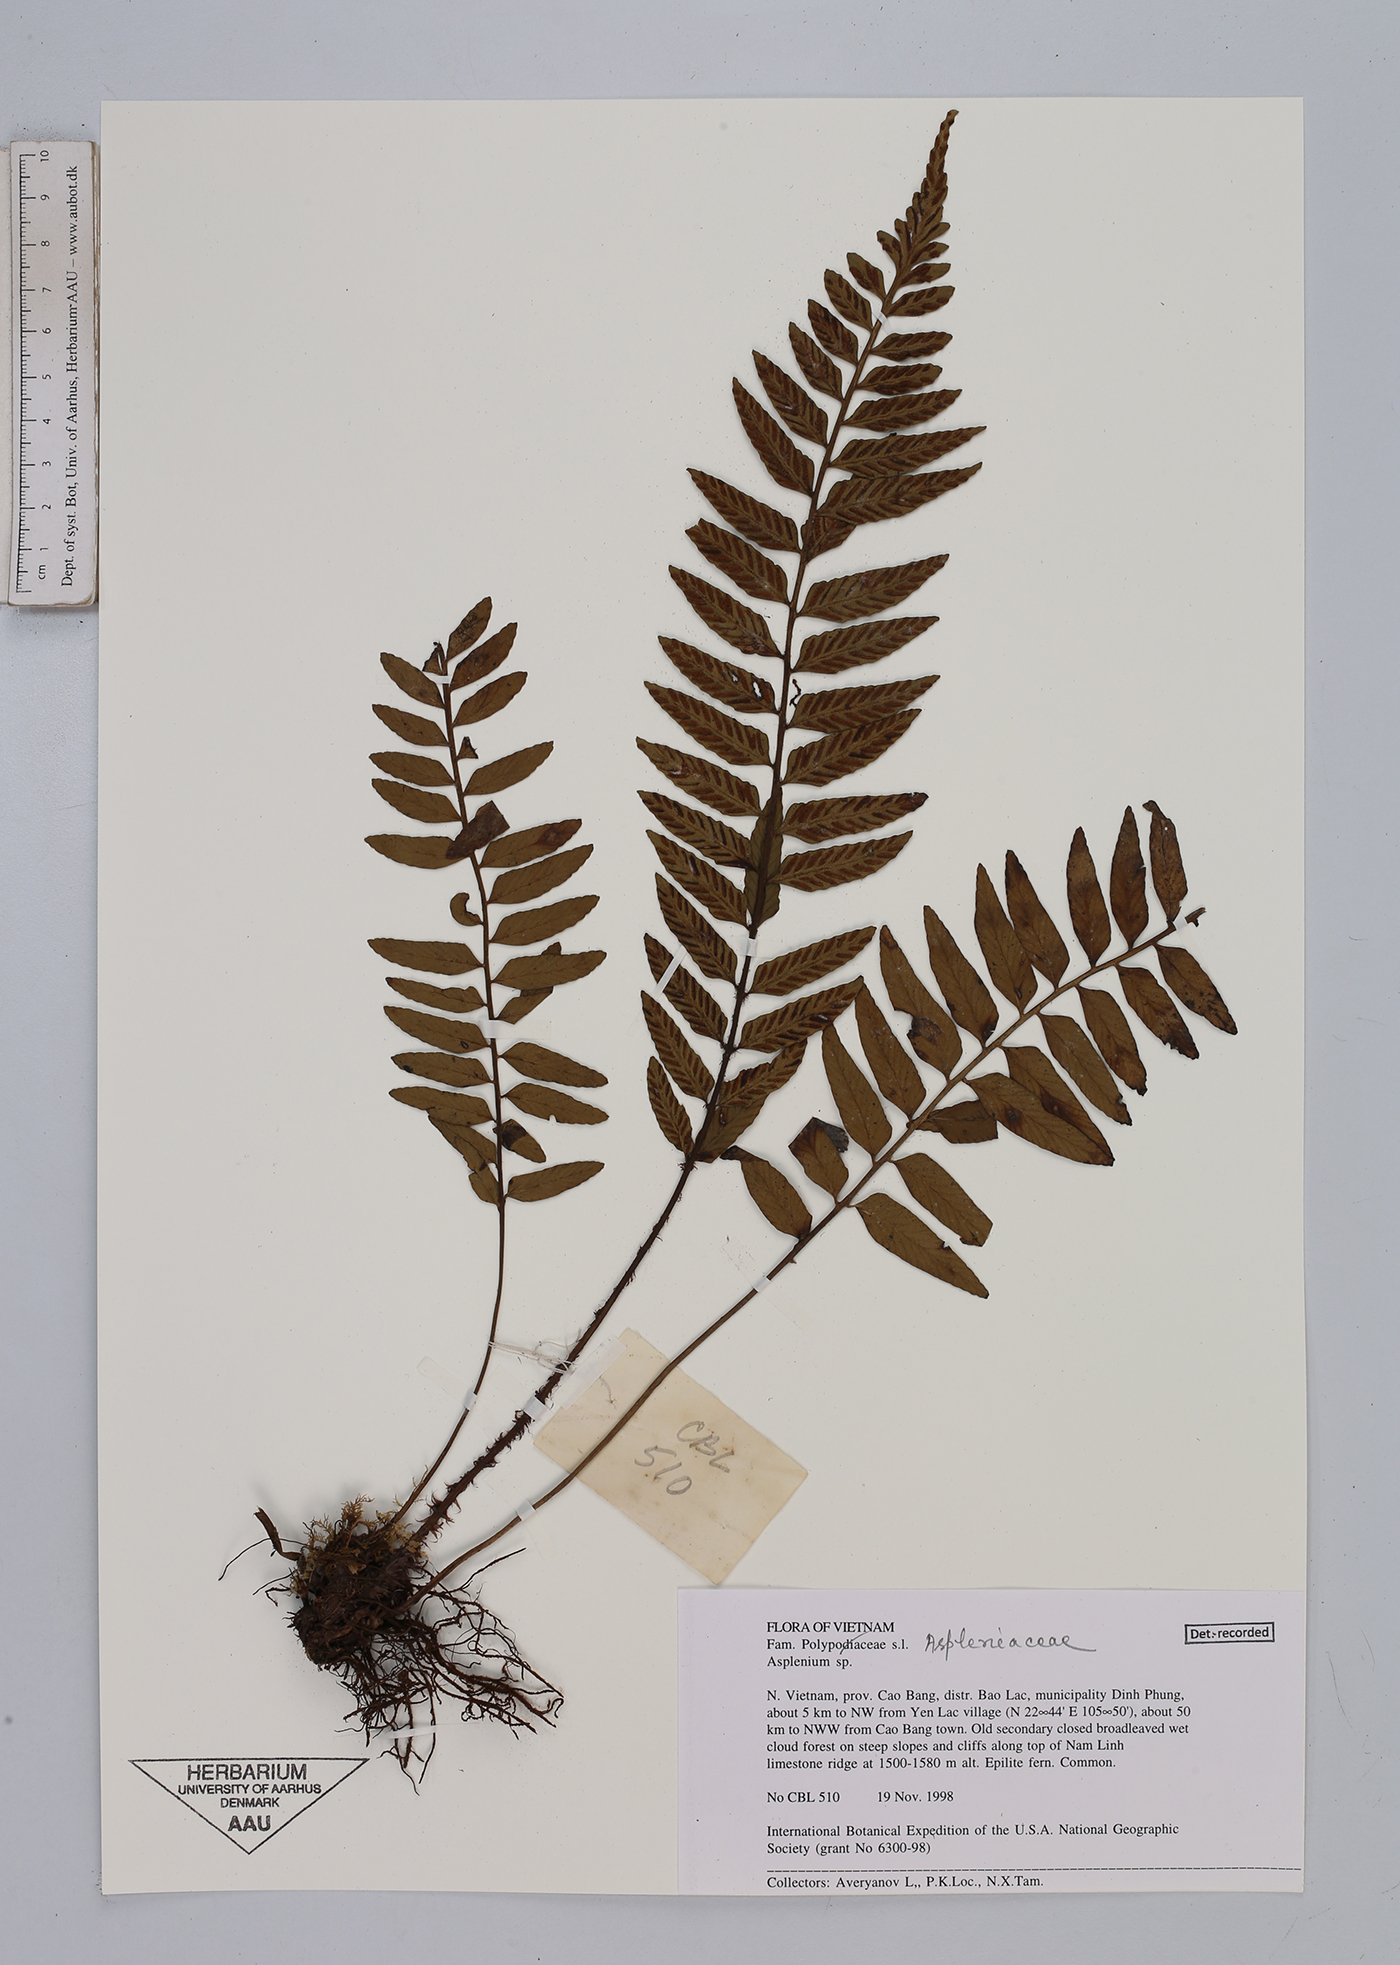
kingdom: Plantae
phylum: Tracheophyta
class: Polypodiopsida
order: Polypodiales
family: Aspleniaceae
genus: Asplenium
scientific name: Asplenium
